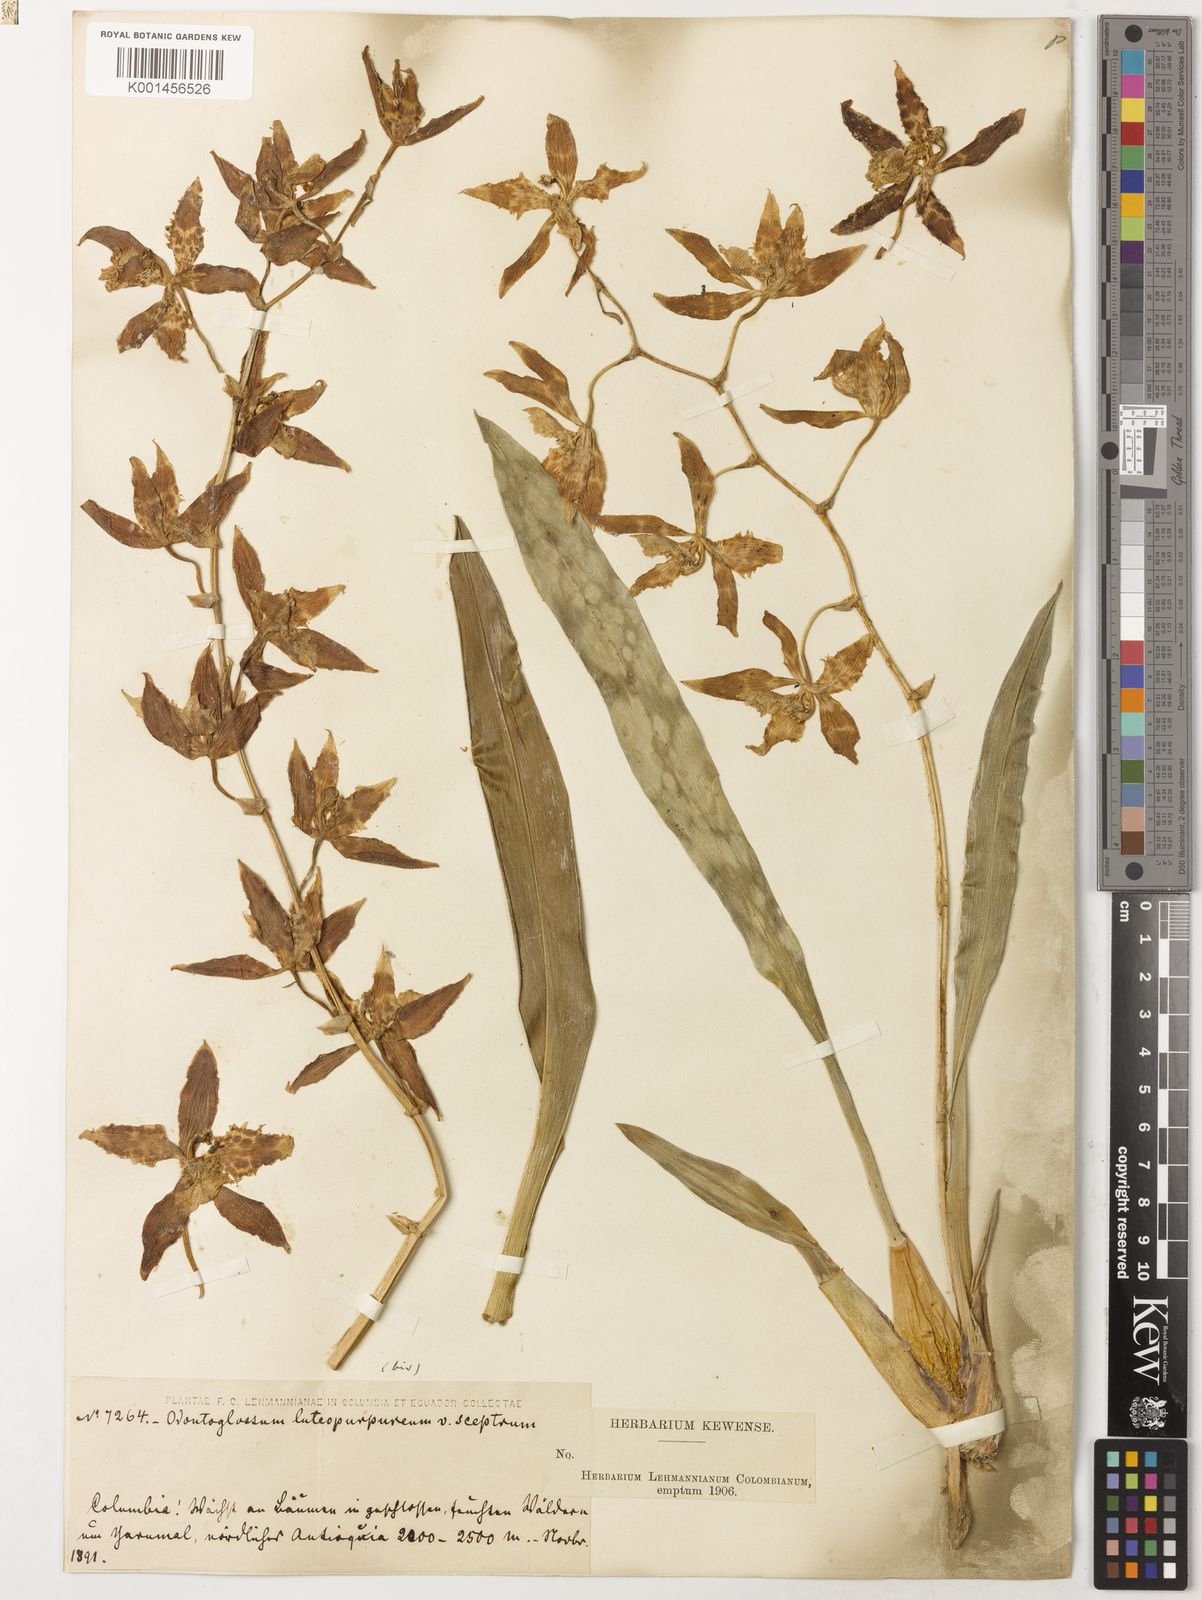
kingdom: Plantae
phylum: Tracheophyta
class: Liliopsida
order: Asparagales
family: Orchidaceae
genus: Oncidium
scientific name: Oncidium sceptrum
